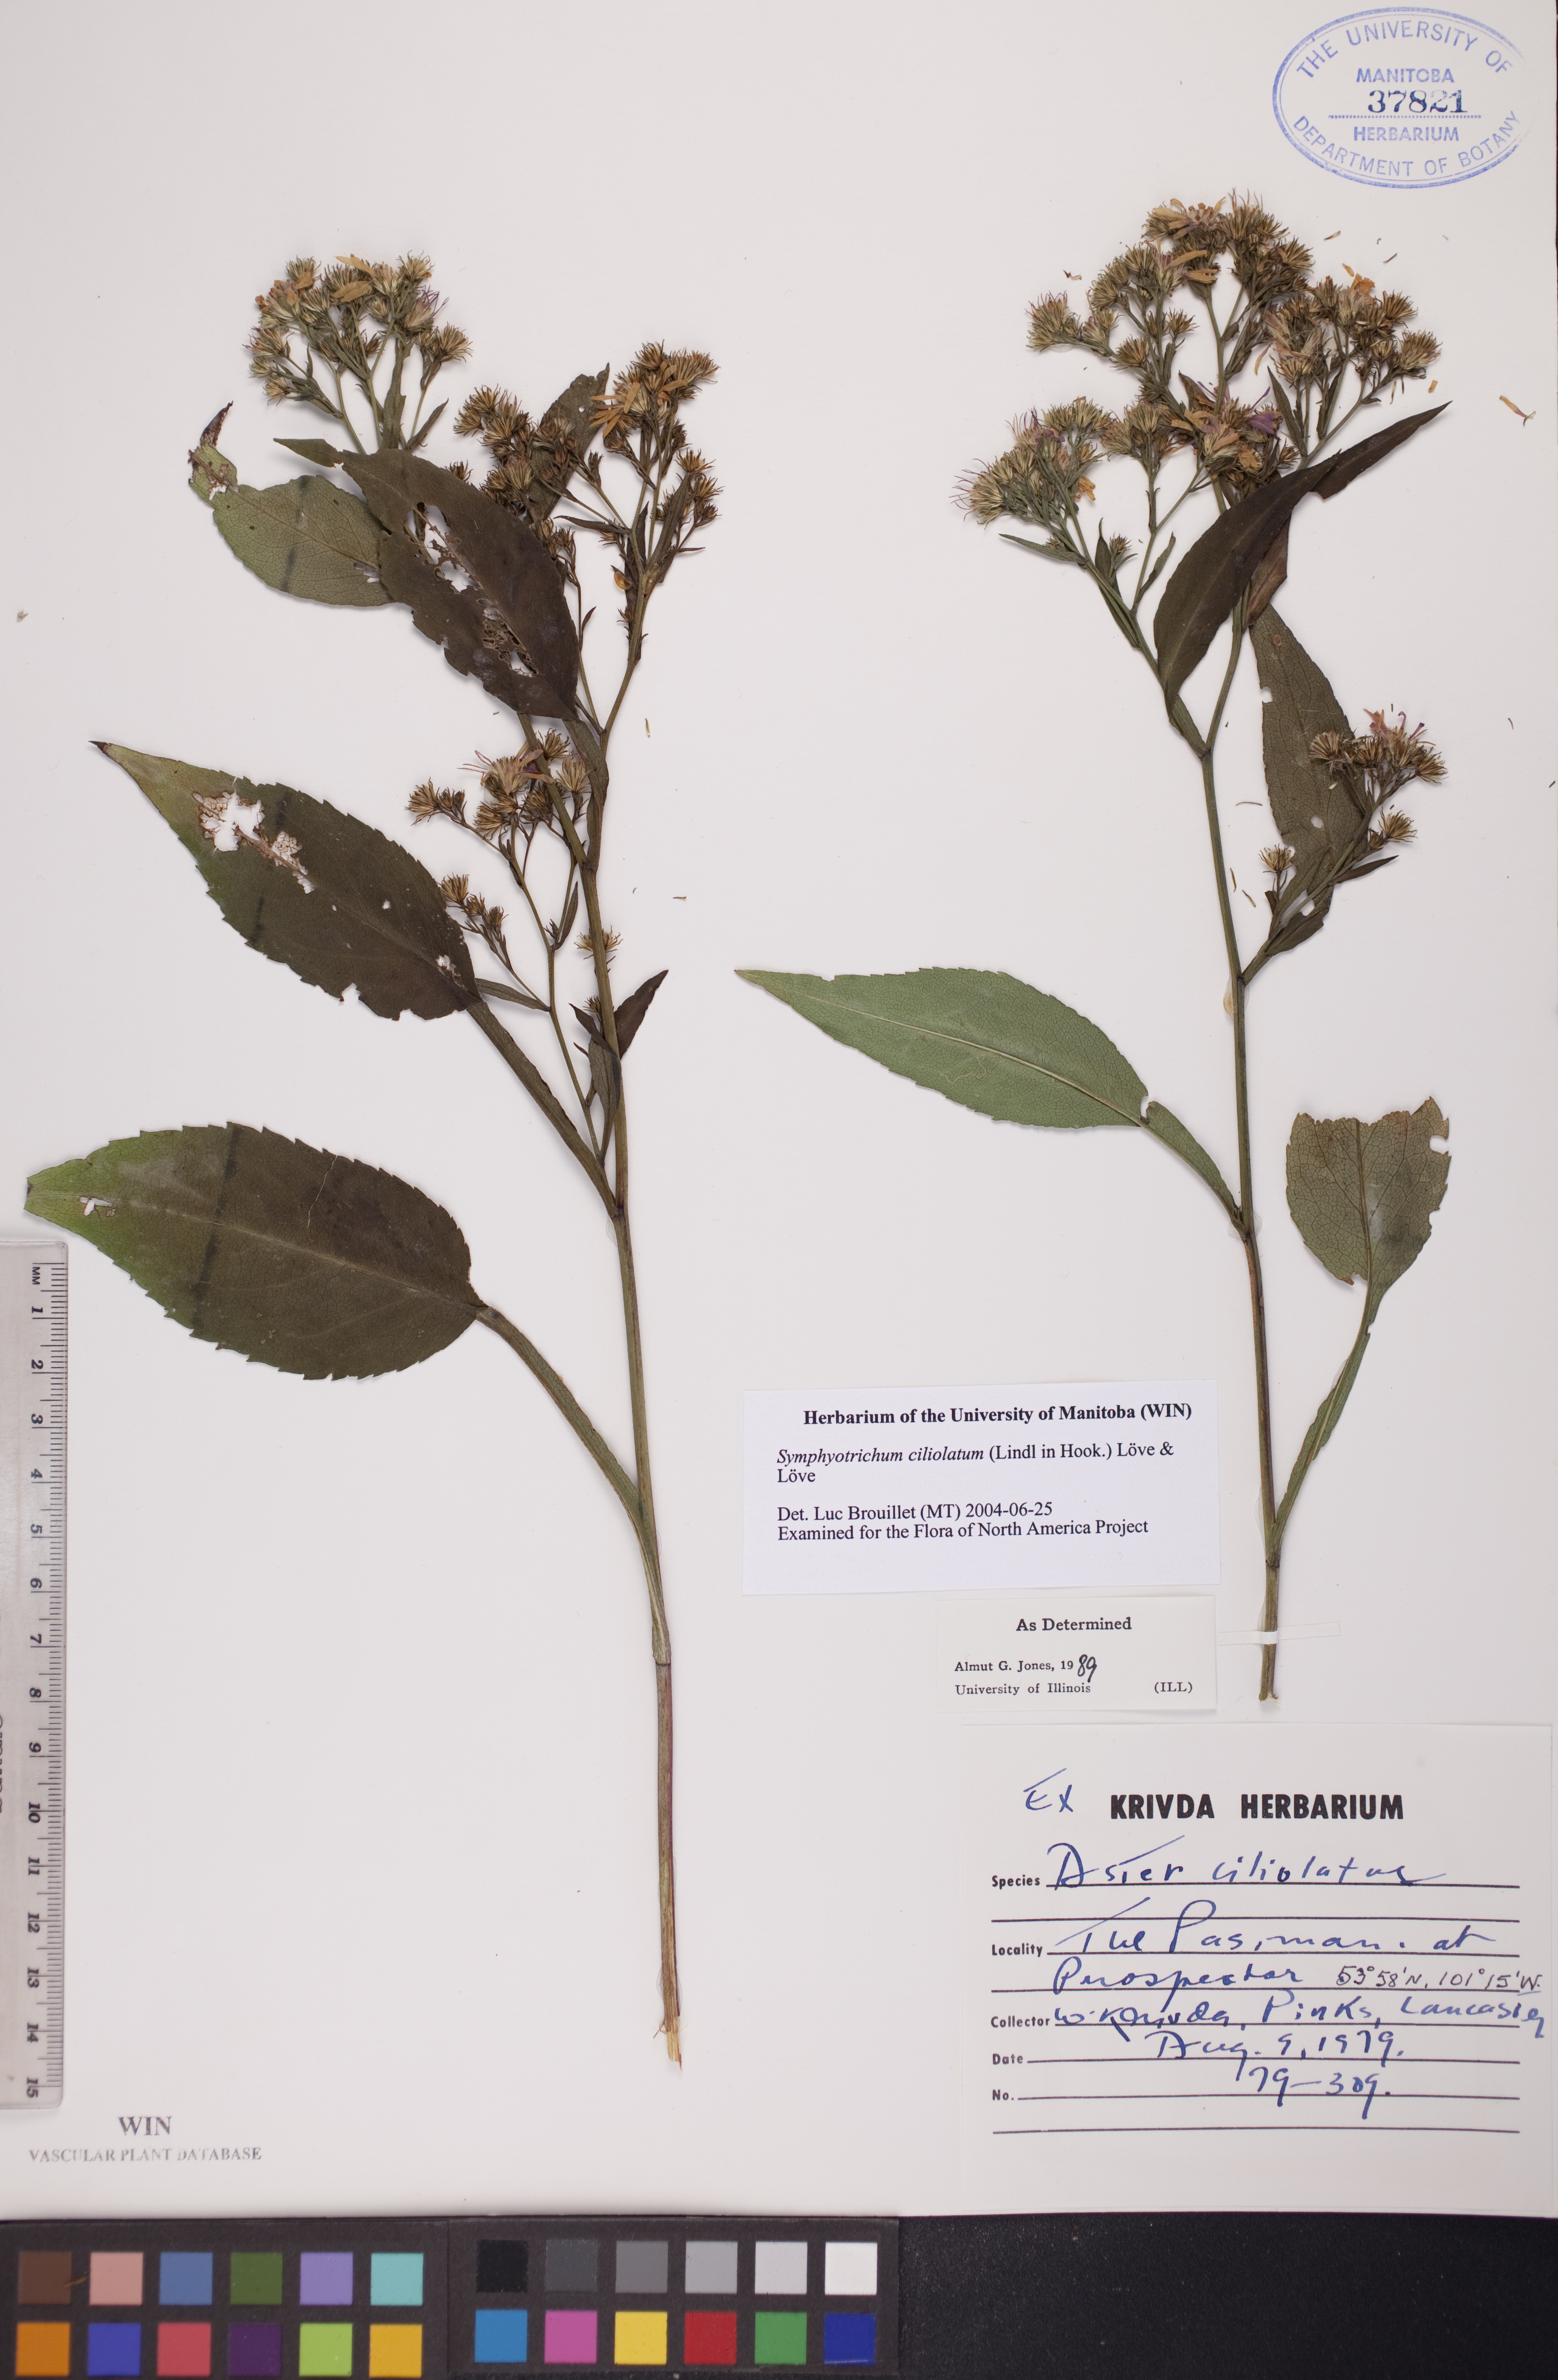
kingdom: Plantae
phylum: Tracheophyta
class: Magnoliopsida
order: Asterales
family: Asteraceae
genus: Symphyotrichum
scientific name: Symphyotrichum ciliolatum
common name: Fringed blue aster
